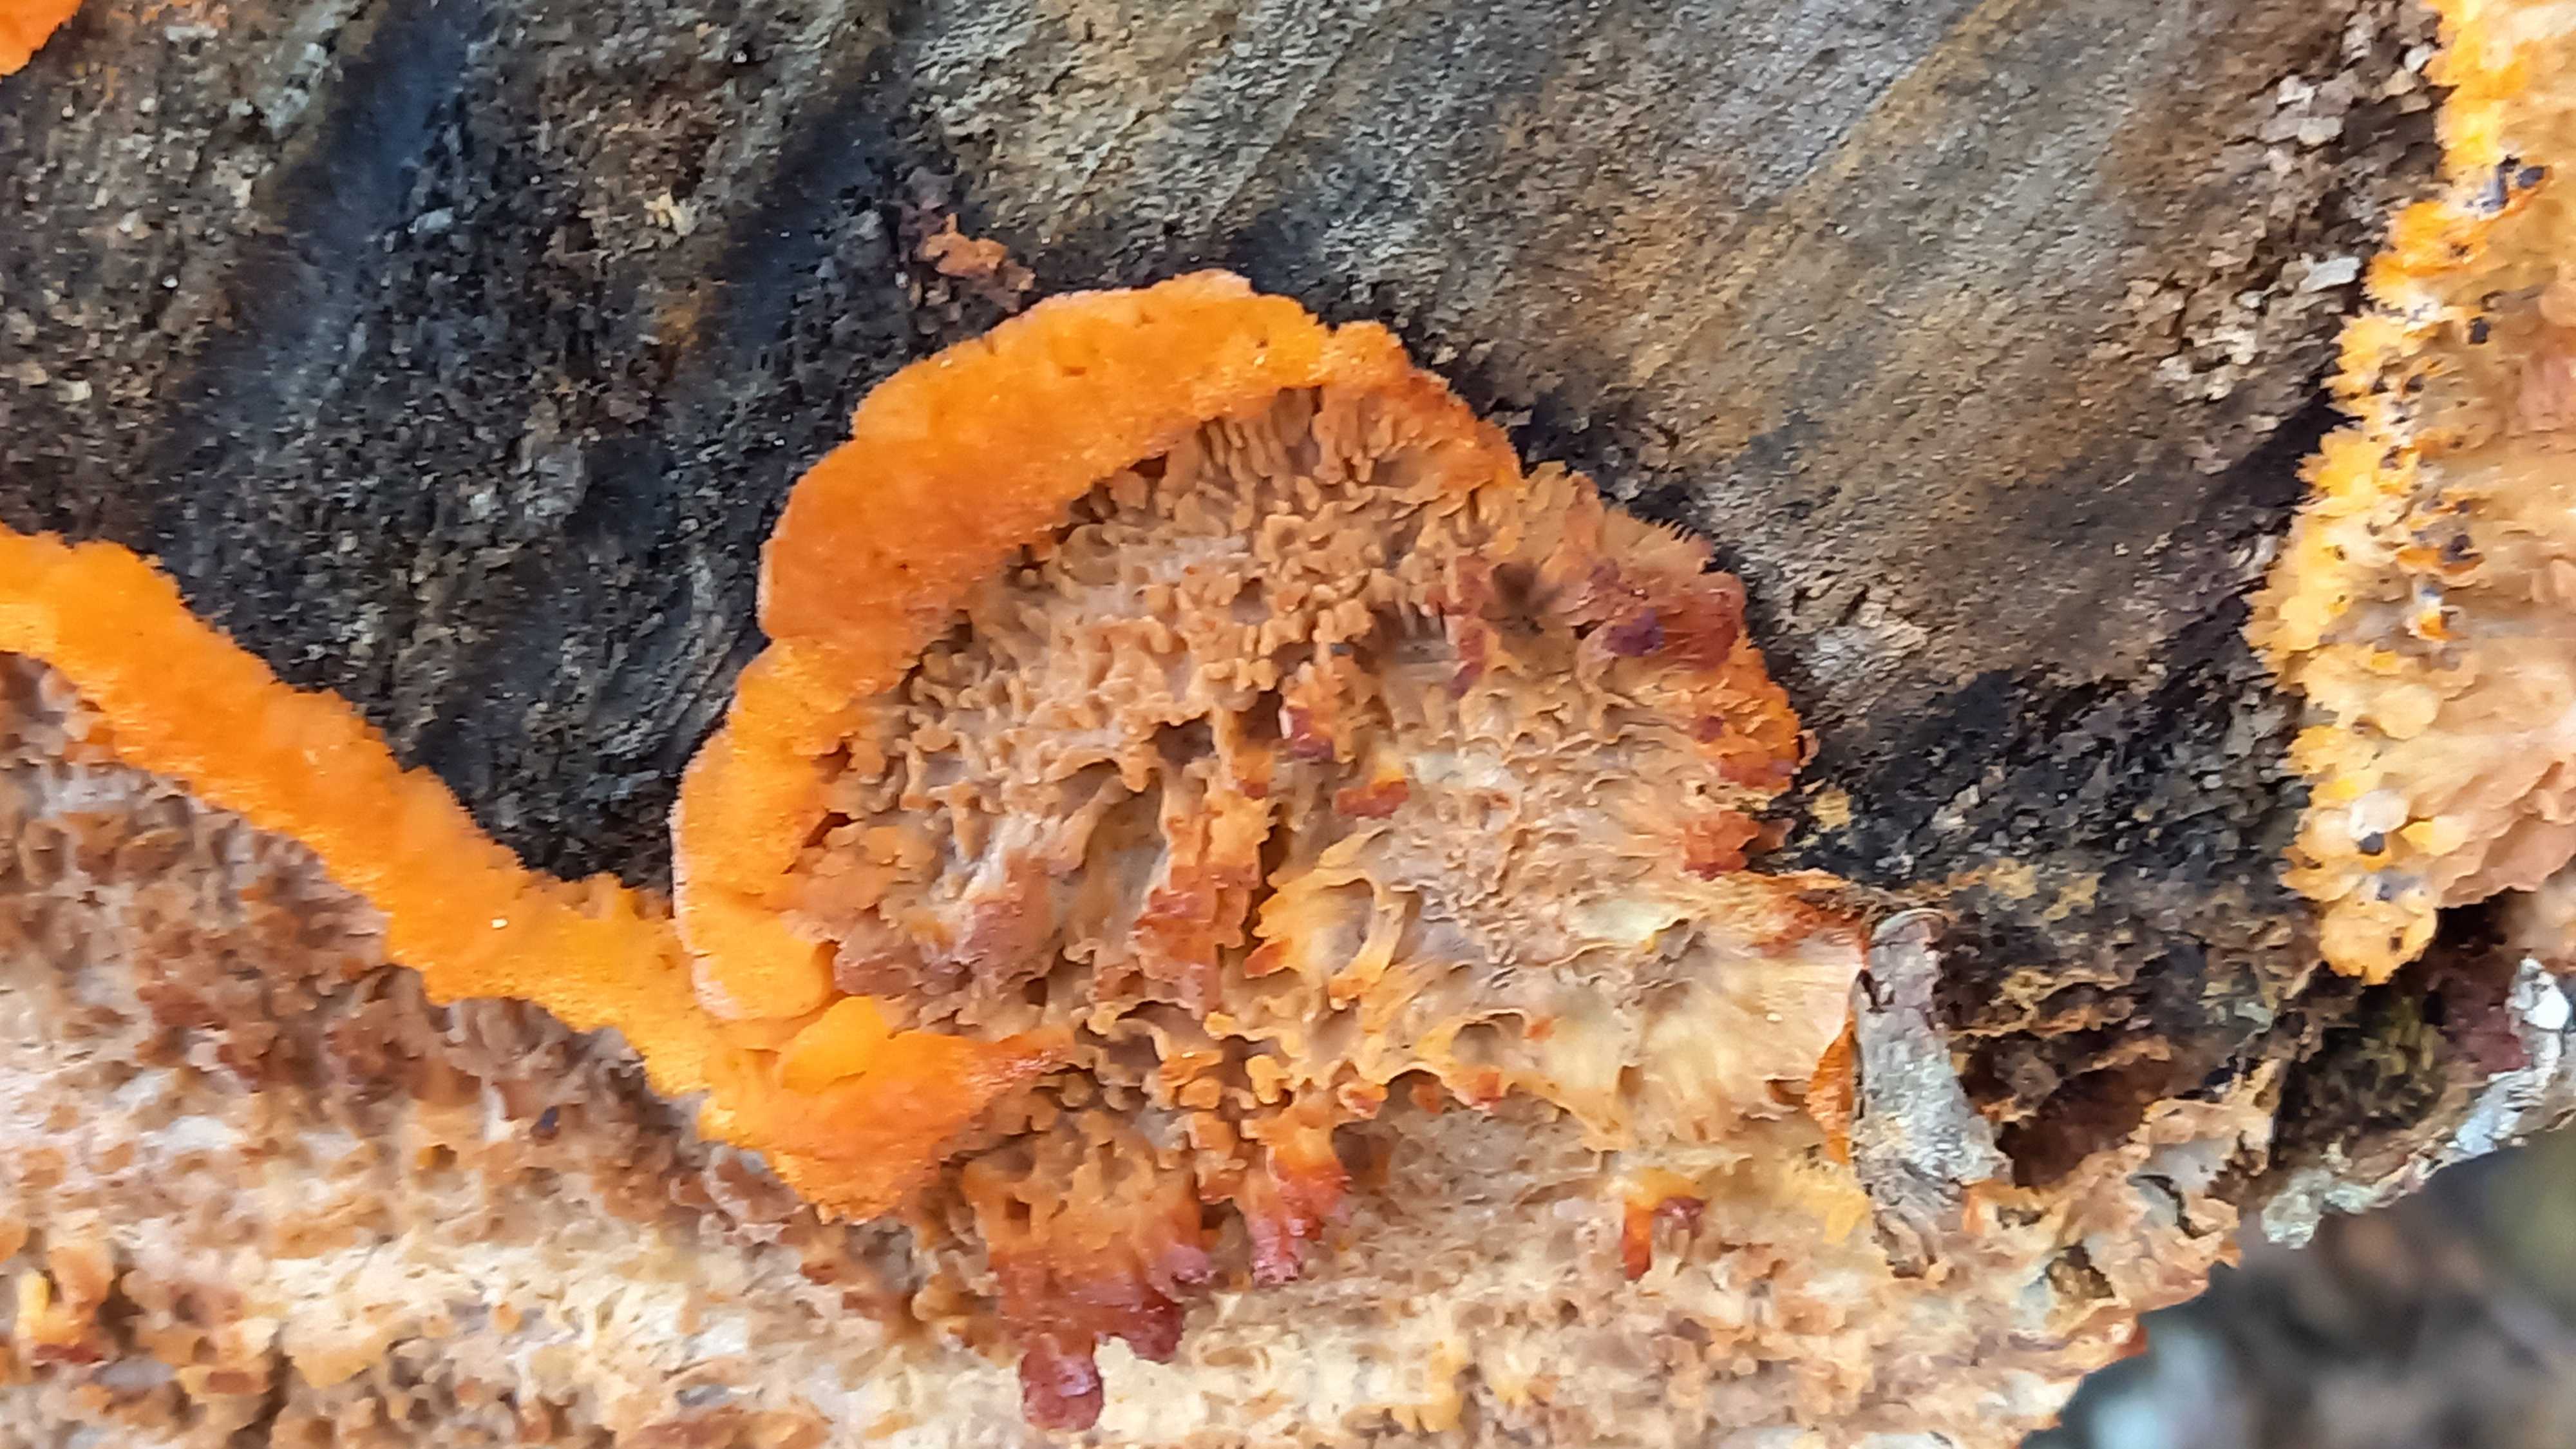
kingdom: Fungi
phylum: Basidiomycota
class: Agaricomycetes
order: Polyporales
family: Meruliaceae
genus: Phlebia
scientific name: Phlebia radiata
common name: stråle-åresvamp
